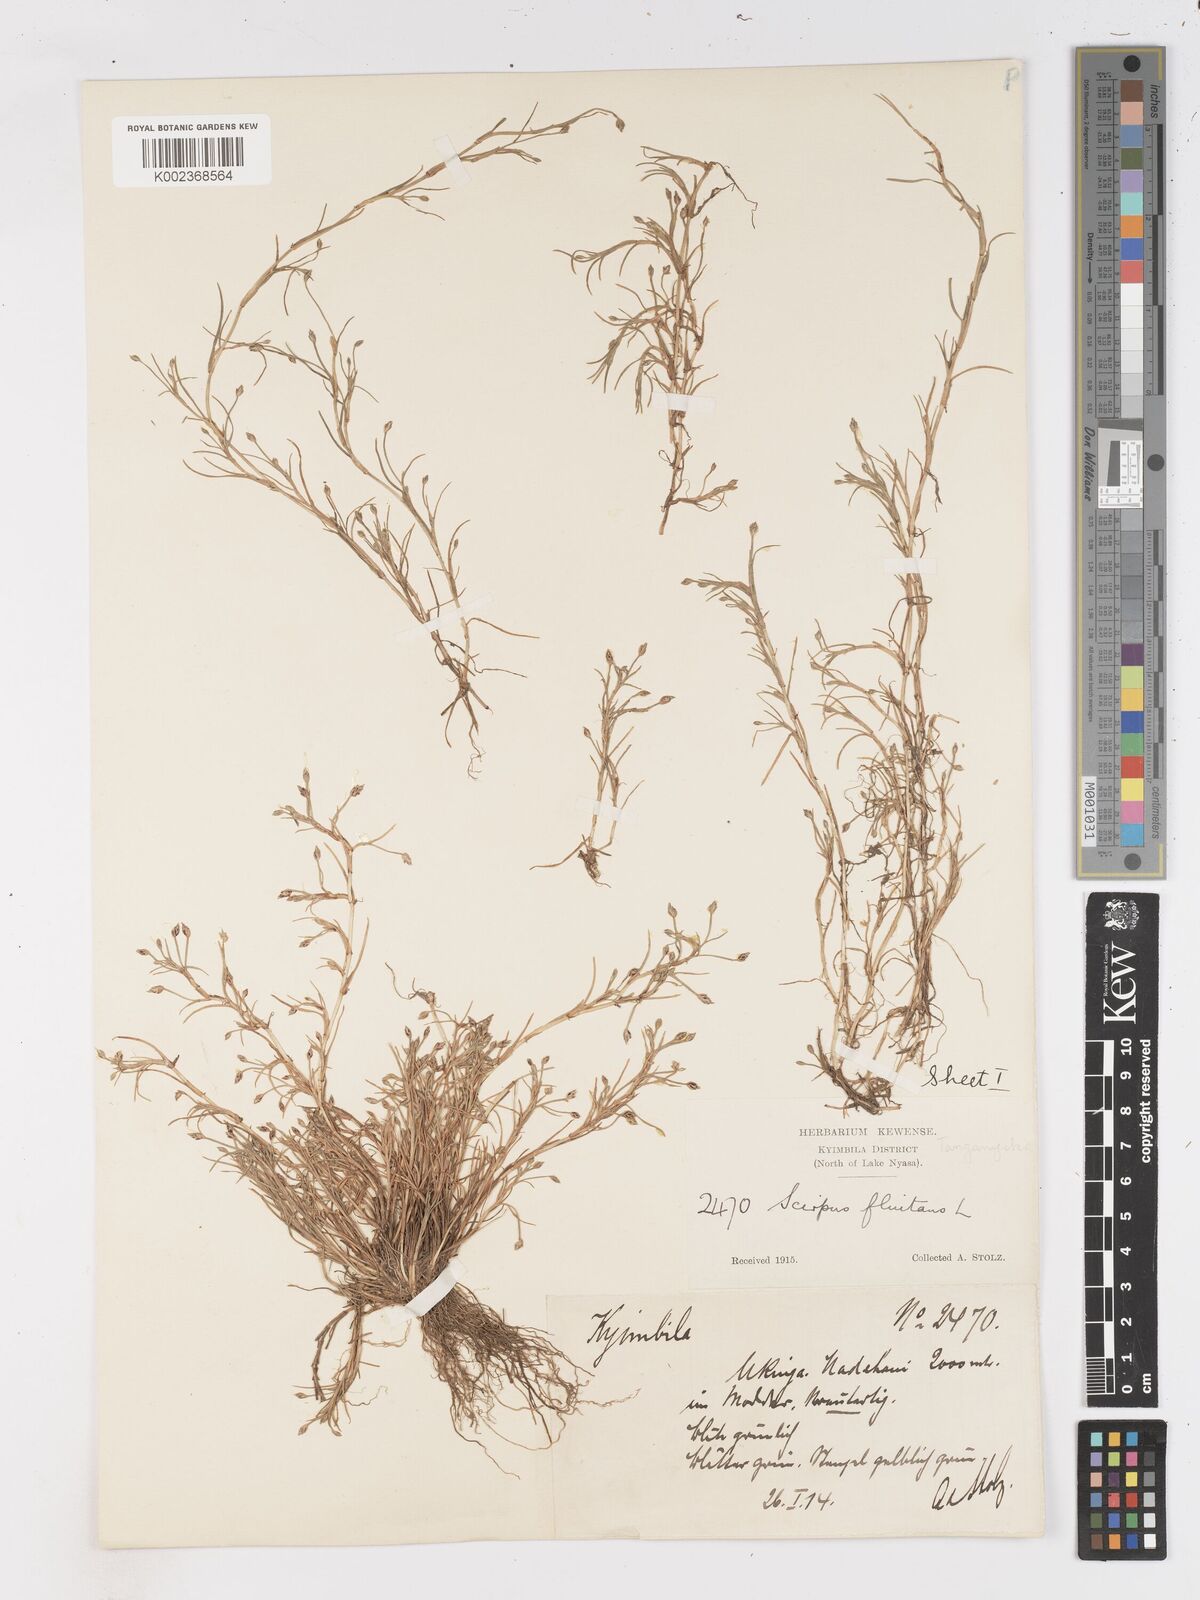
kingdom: Plantae
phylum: Tracheophyta
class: Liliopsida
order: Poales
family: Cyperaceae
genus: Isolepis
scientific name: Isolepis fluitans
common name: Floating club-rush
